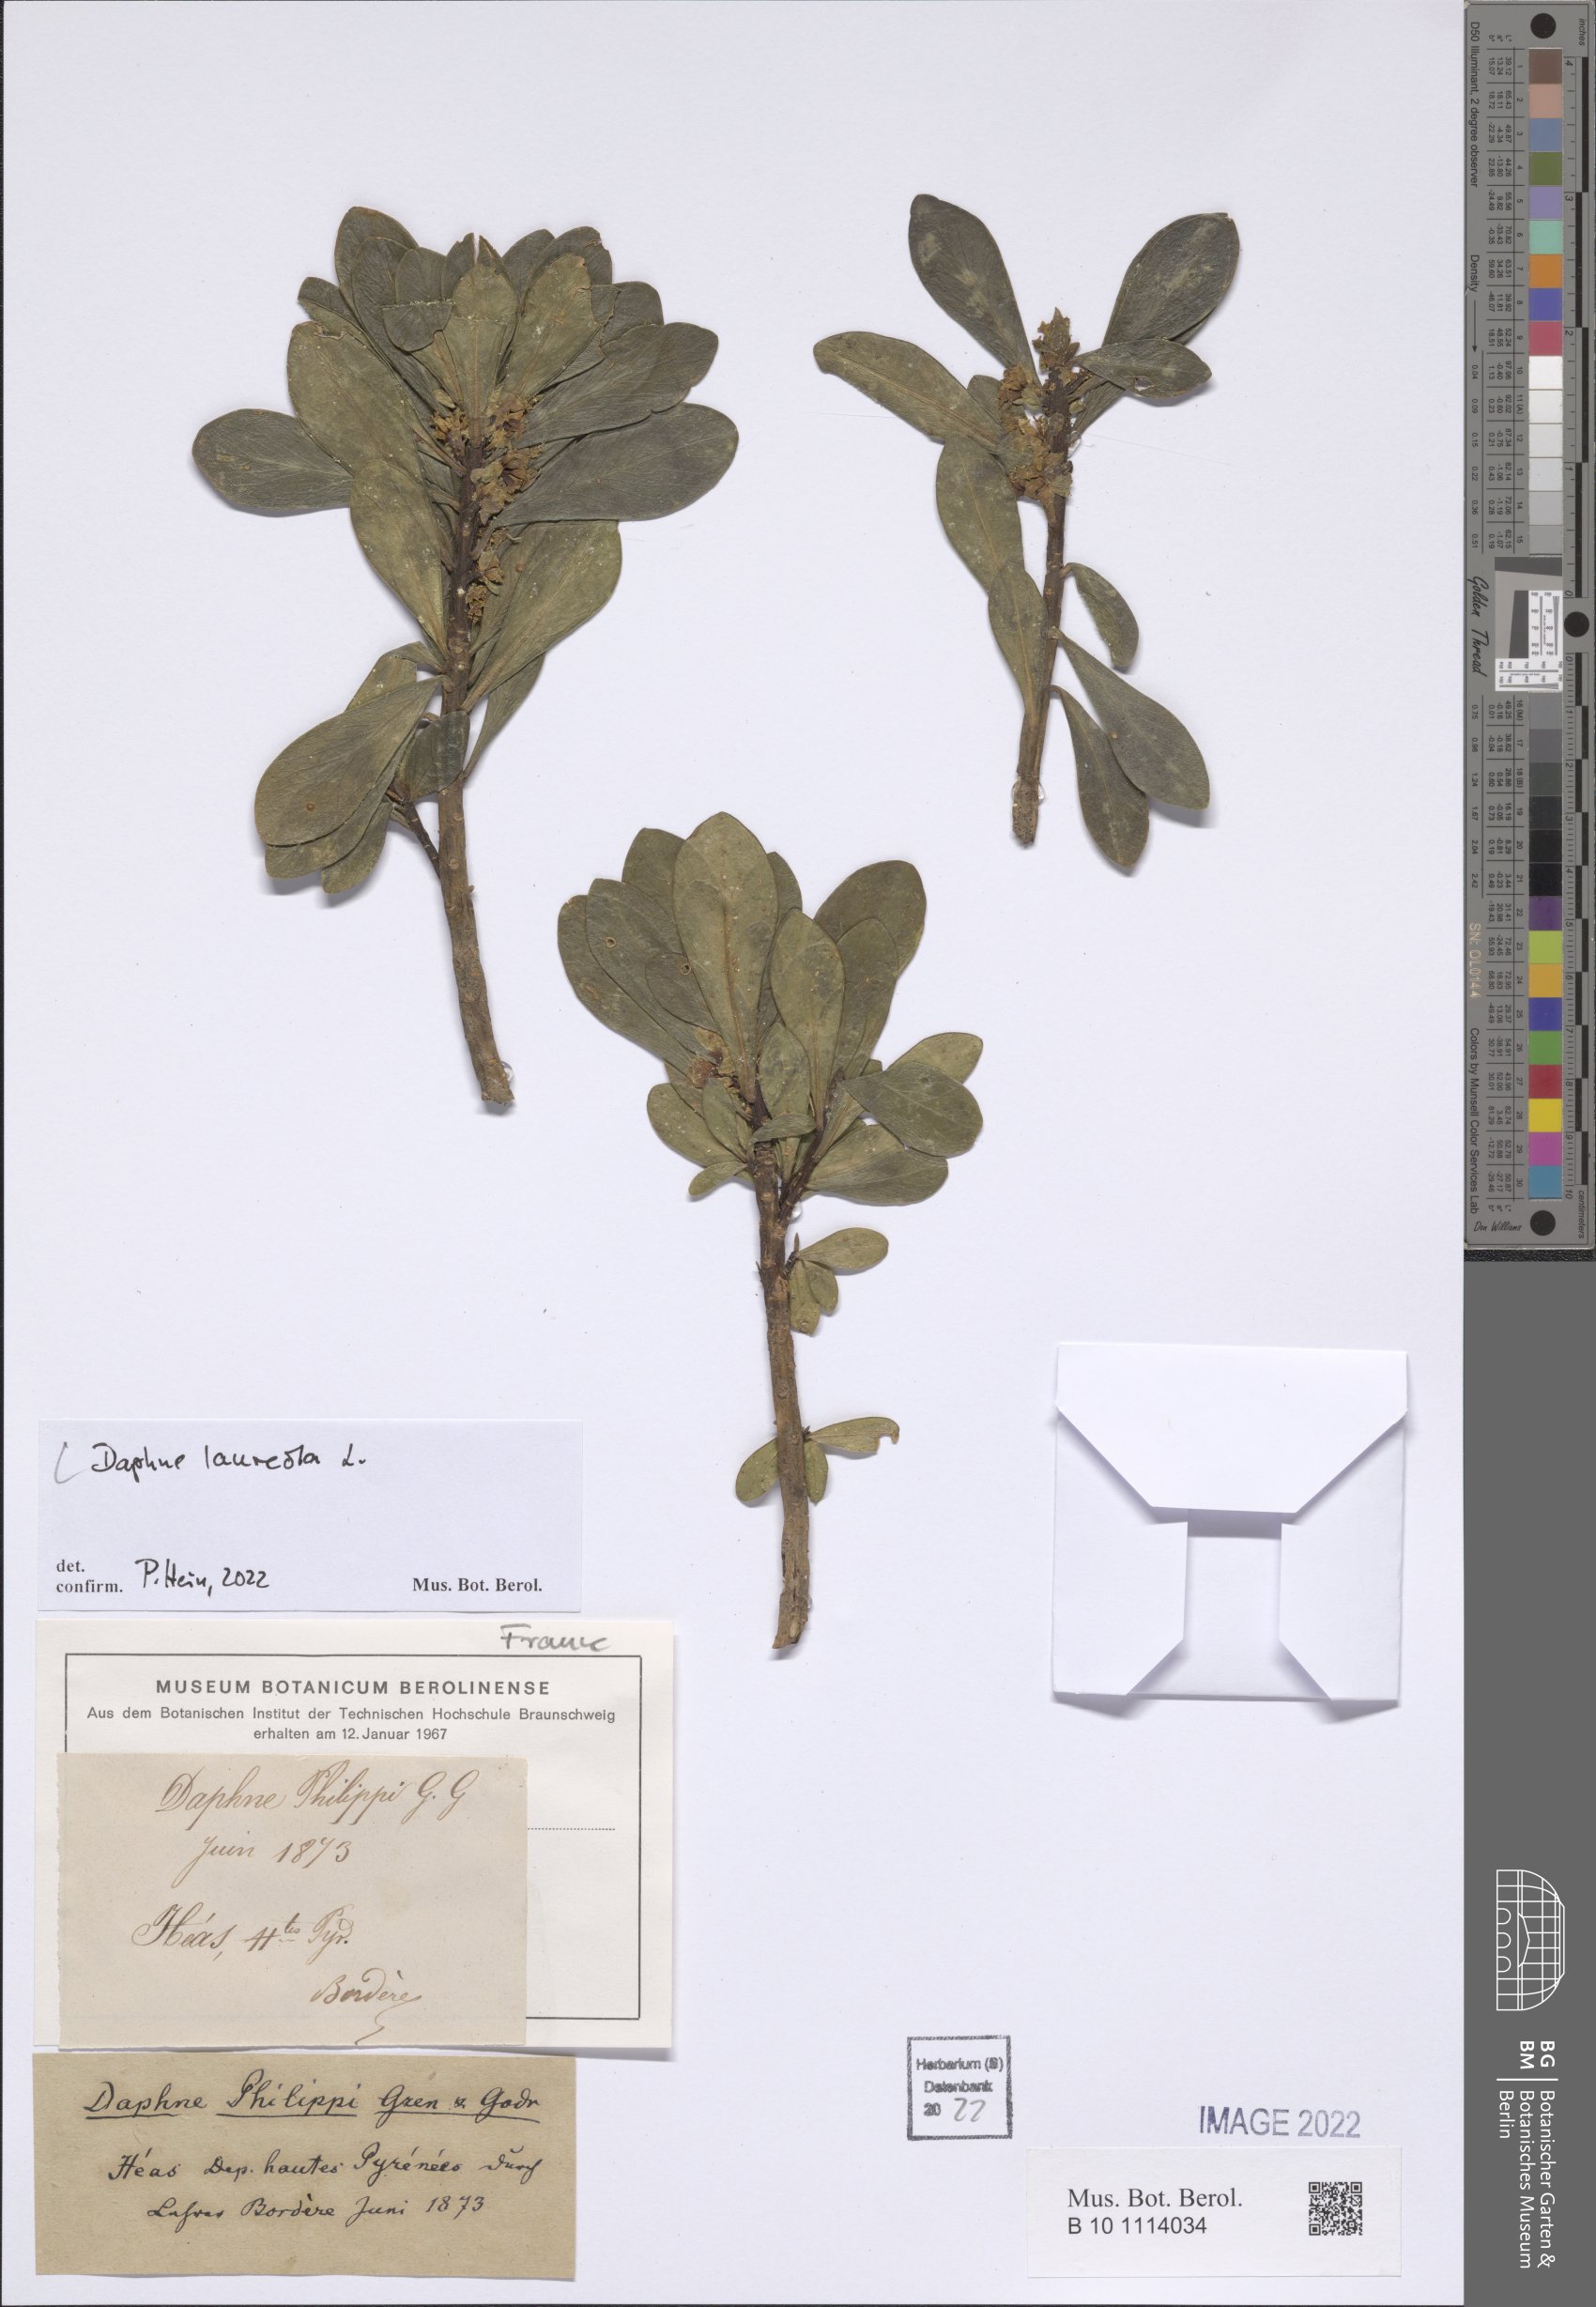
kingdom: Plantae
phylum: Tracheophyta
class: Magnoliopsida
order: Malvales
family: Thymelaeaceae
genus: Daphne
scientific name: Daphne laureola
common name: Spurge-laurel
